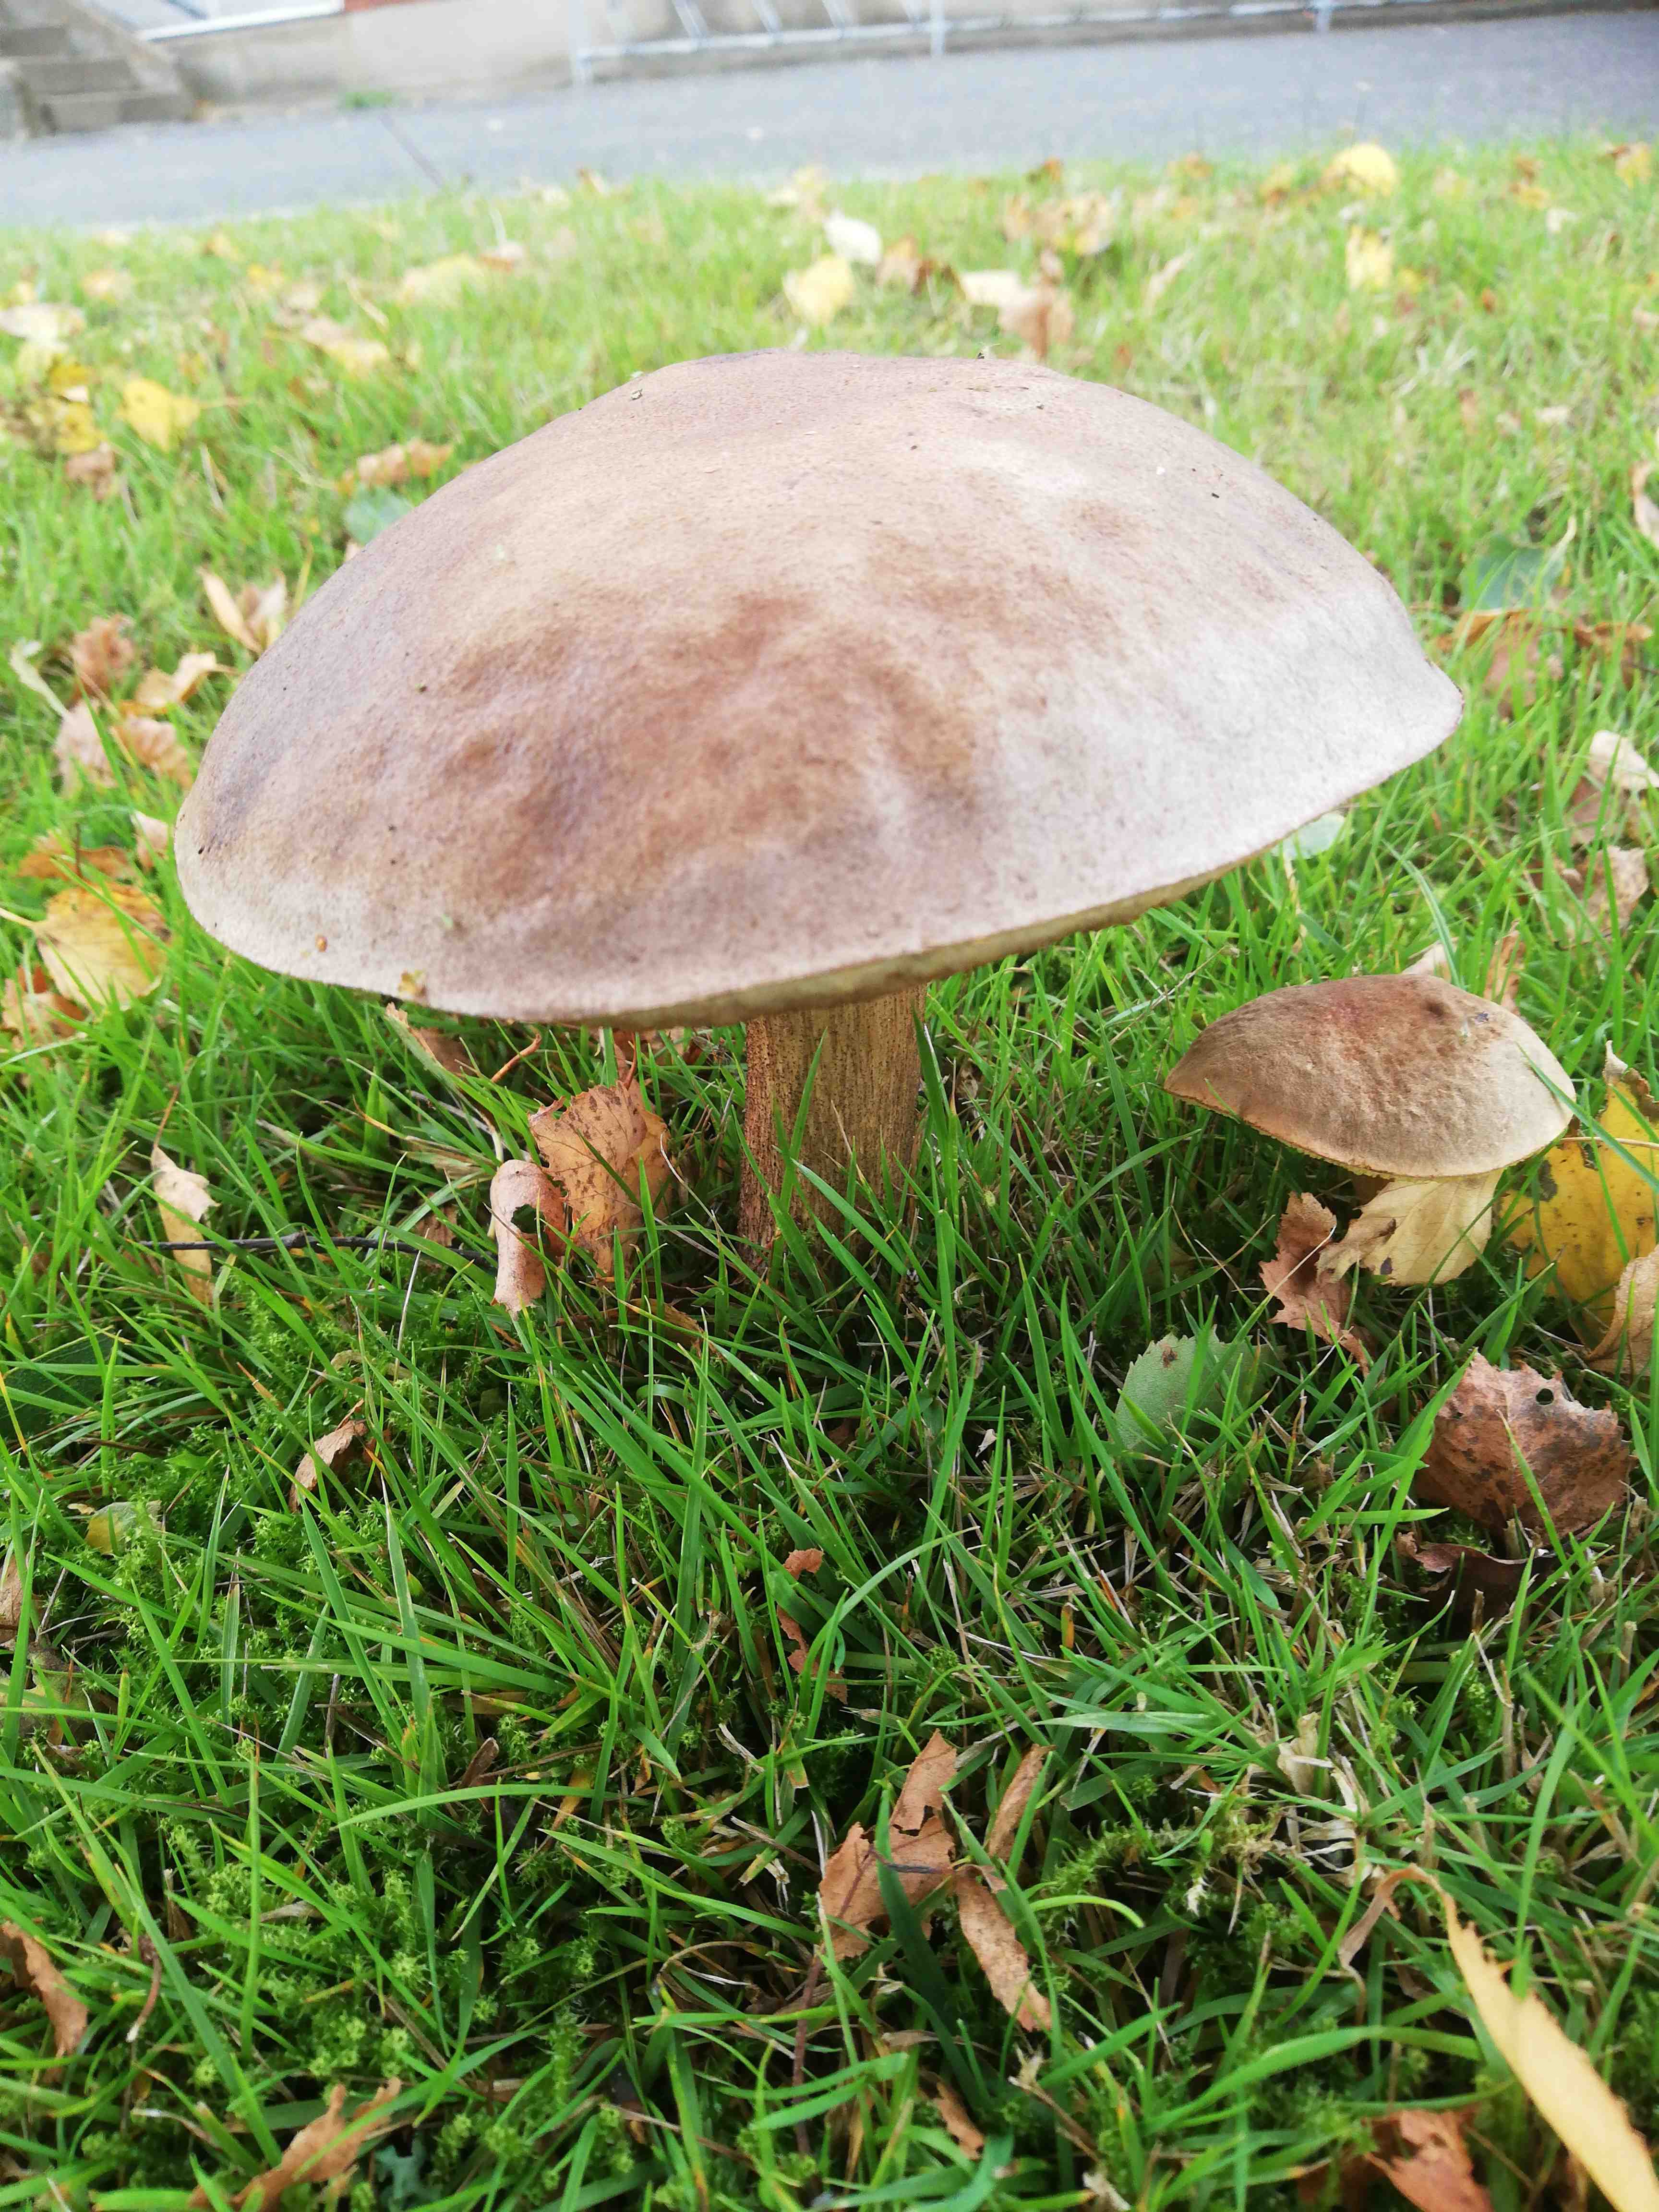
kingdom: Fungi
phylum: Basidiomycota
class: Agaricomycetes
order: Boletales
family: Boletaceae
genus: Leccinum
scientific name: Leccinum
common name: skælrørhat
